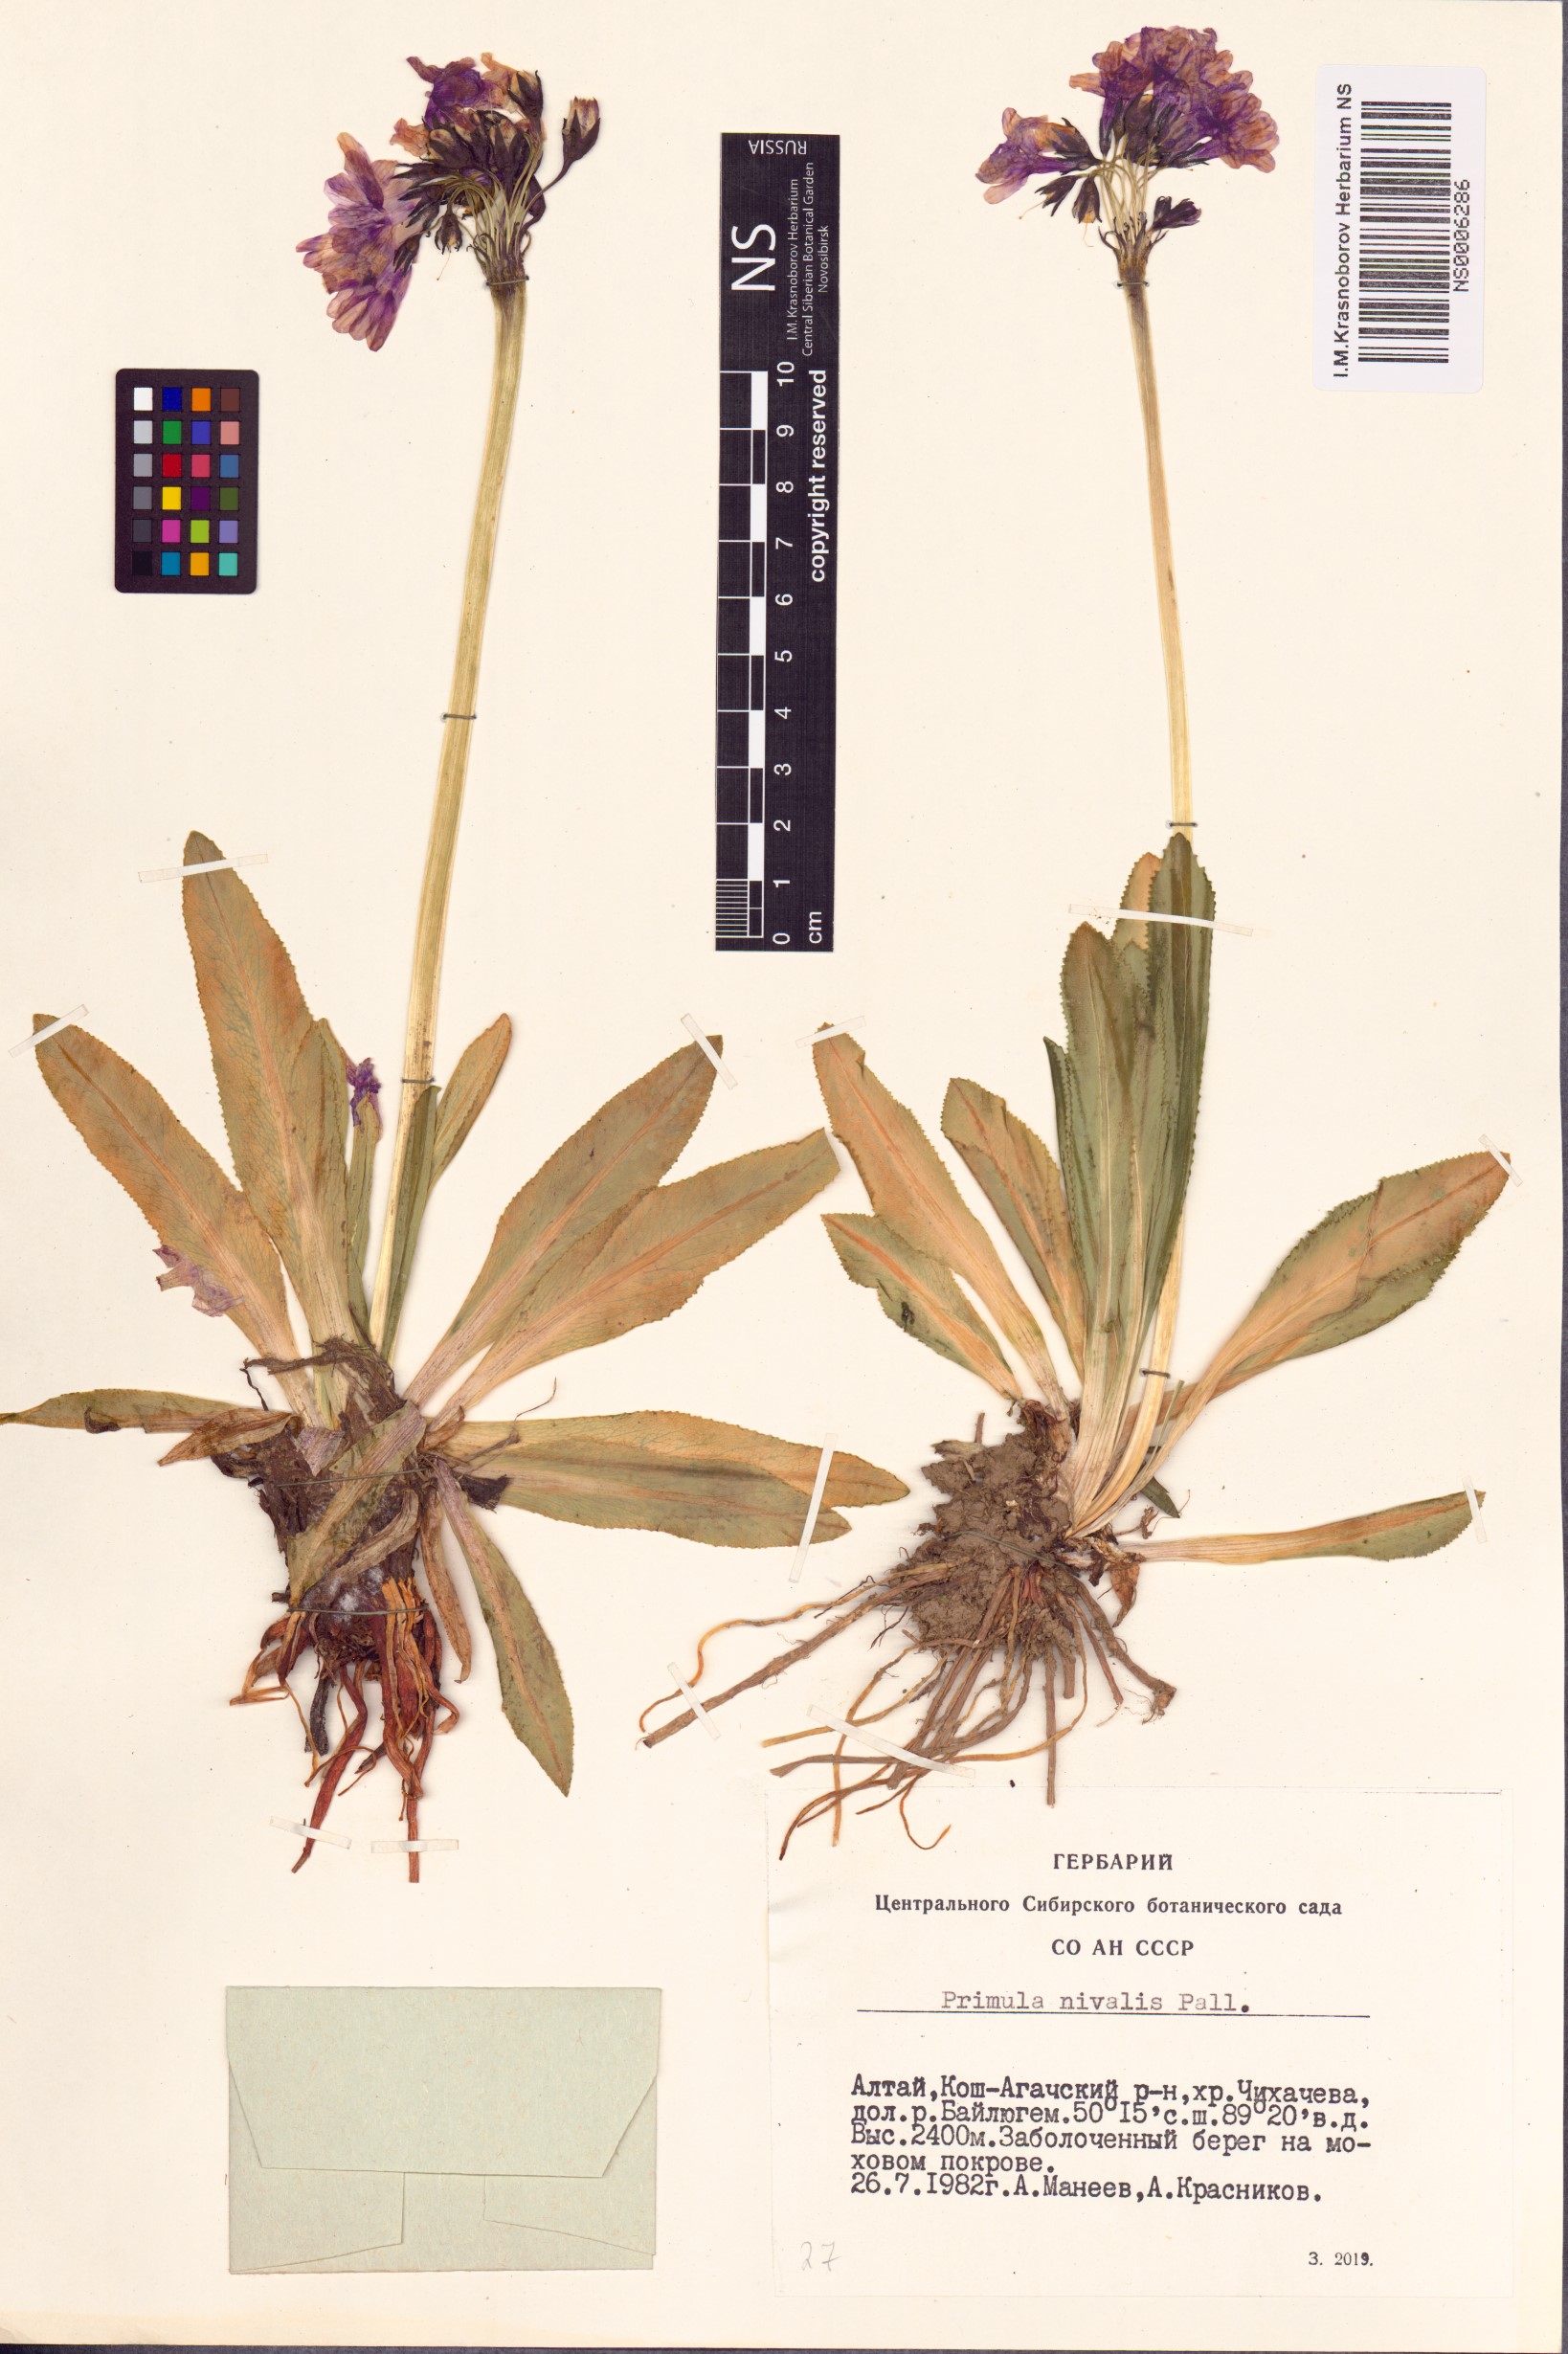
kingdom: Plantae
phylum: Tracheophyta
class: Magnoliopsida
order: Ericales
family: Primulaceae
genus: Primula
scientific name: Primula nivalis
